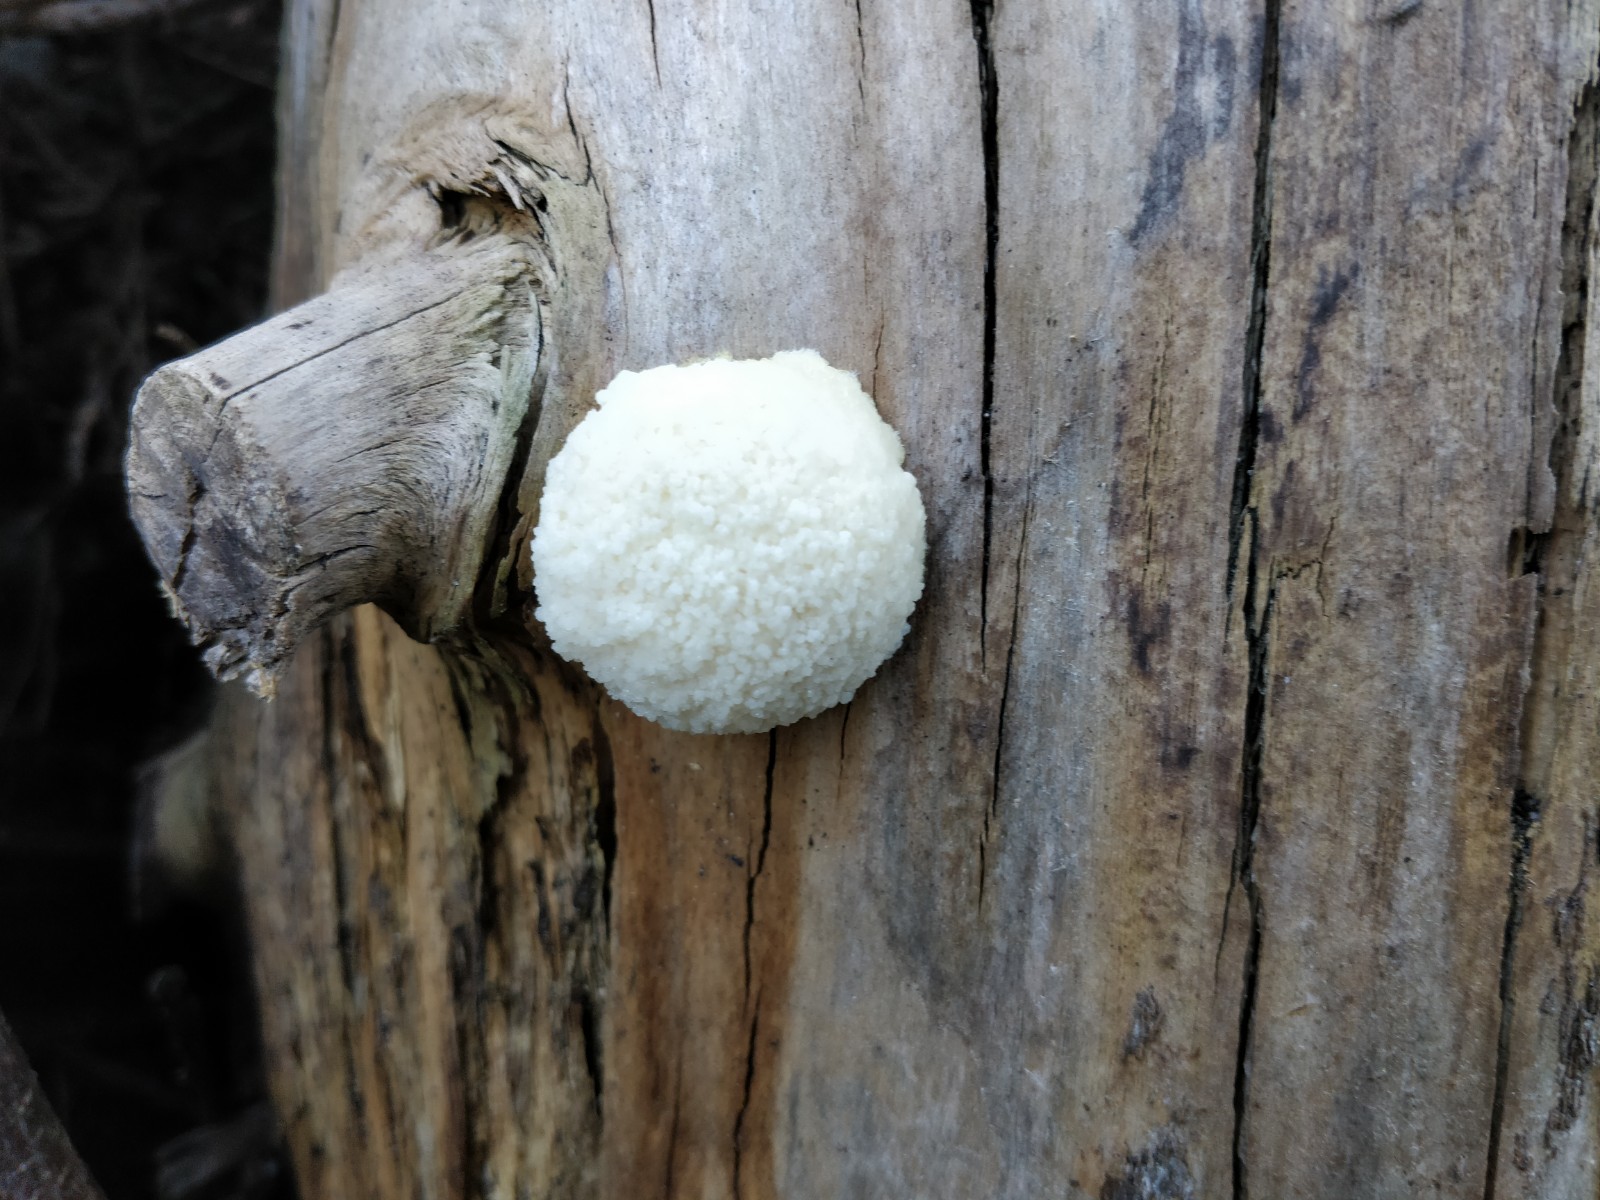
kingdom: Protozoa
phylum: Mycetozoa
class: Myxomycetes
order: Cribrariales
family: Tubiferaceae
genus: Reticularia
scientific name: Reticularia
